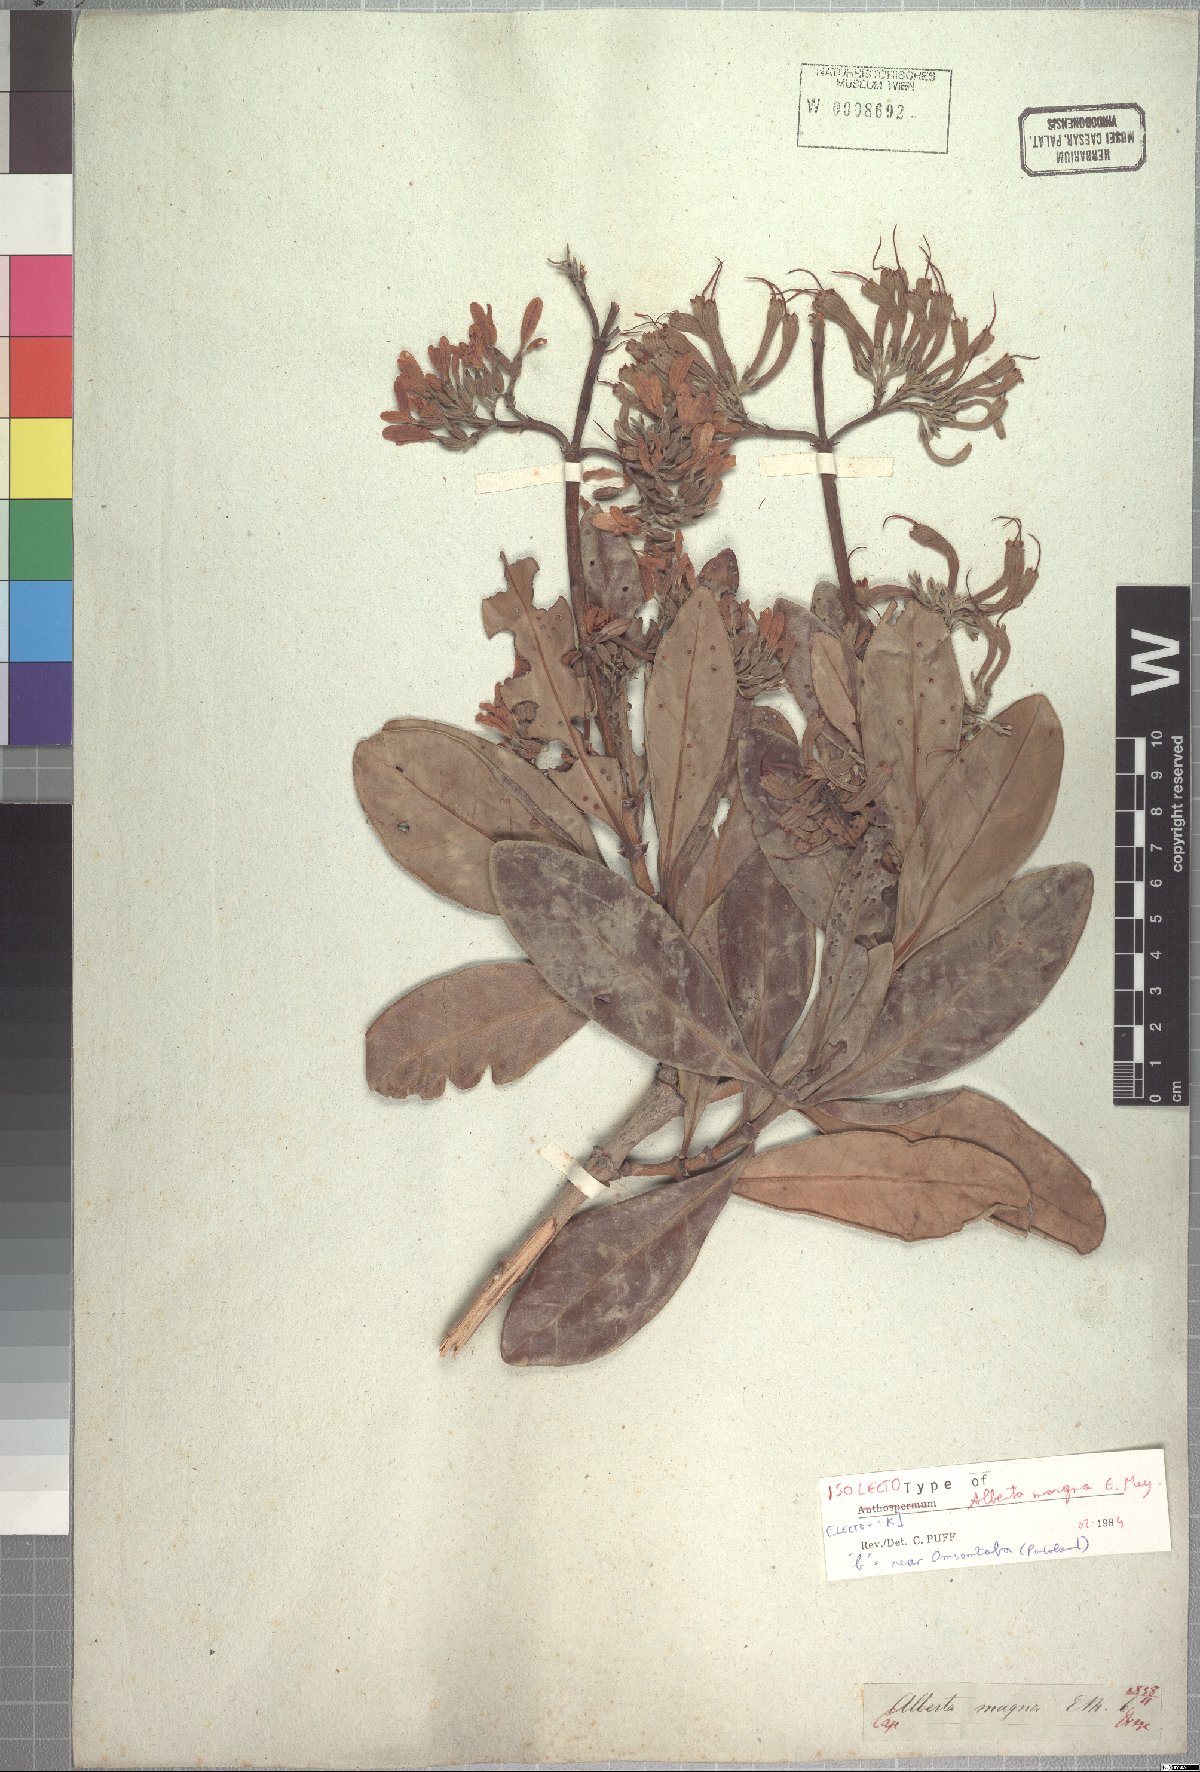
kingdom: Plantae
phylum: Tracheophyta
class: Magnoliopsida
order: Gentianales
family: Rubiaceae
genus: Alberta
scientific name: Alberta magna
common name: Magnificent-flame
